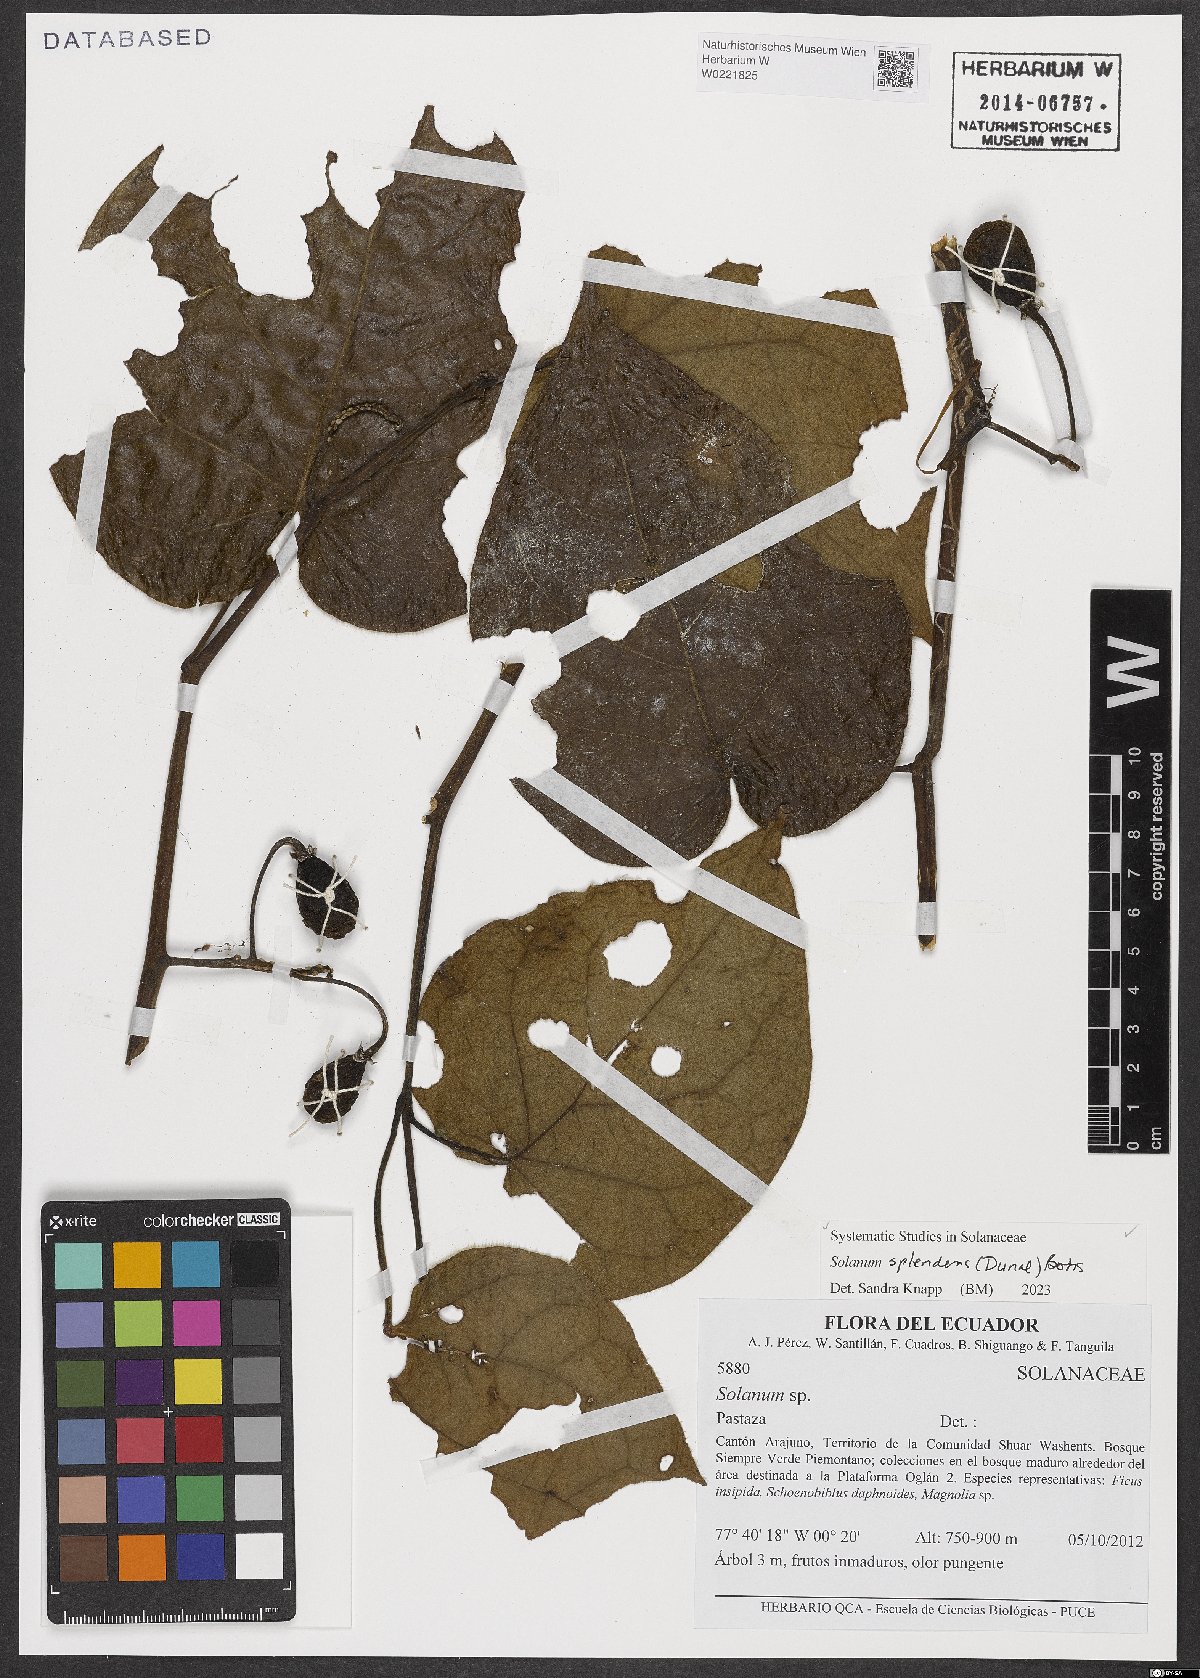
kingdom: Plantae
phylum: Tracheophyta
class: Magnoliopsida
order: Solanales
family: Solanaceae
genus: Solanum
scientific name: Solanum splendens
